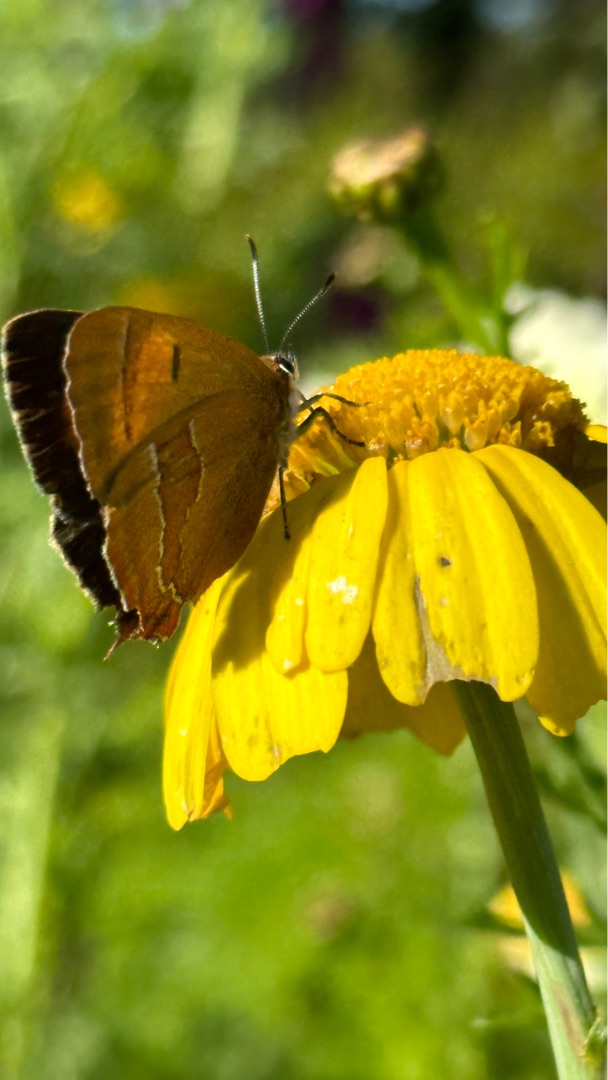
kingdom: Animalia
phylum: Arthropoda
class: Insecta
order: Lepidoptera
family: Lycaenidae
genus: Thecla
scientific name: Thecla betulae
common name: Guldhale
